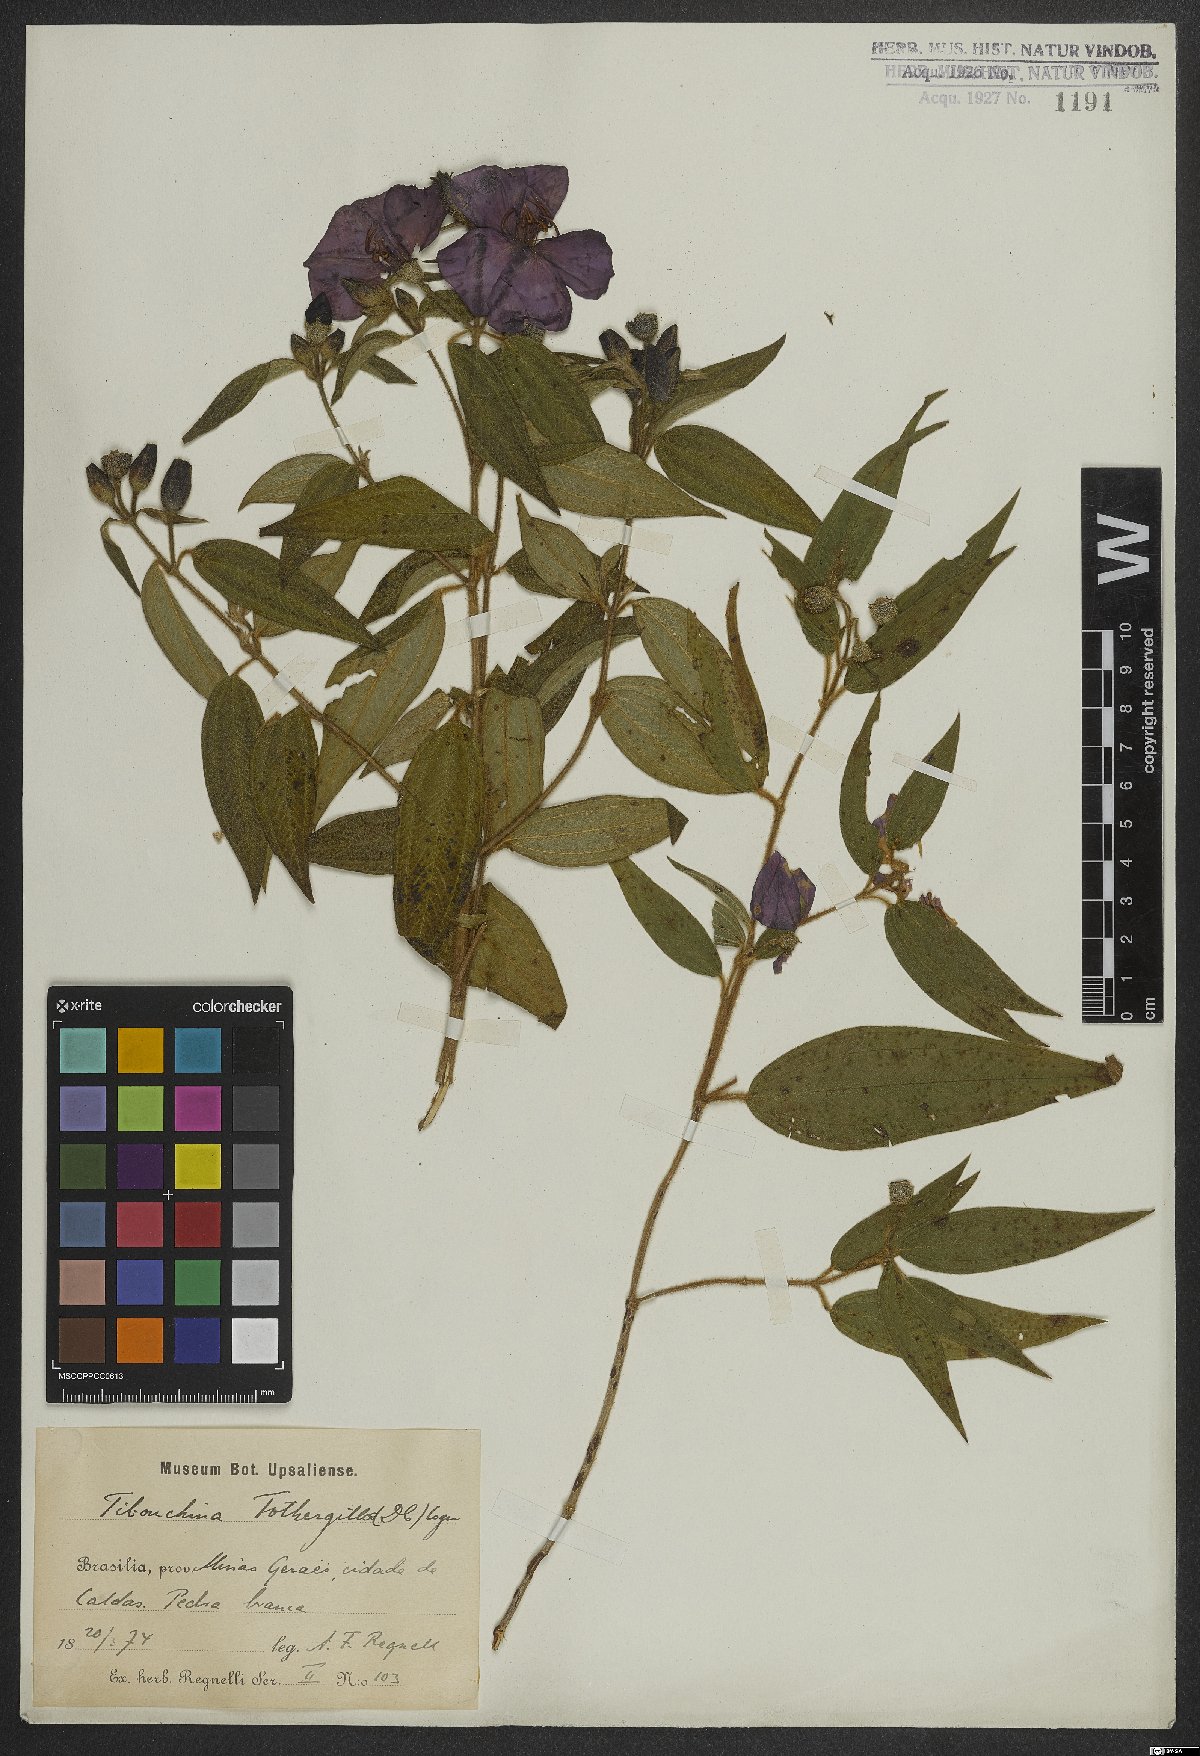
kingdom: Plantae
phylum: Tracheophyta
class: Magnoliopsida
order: Myrtales
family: Melastomataceae
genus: Pleroma
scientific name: Pleroma fothergillae
